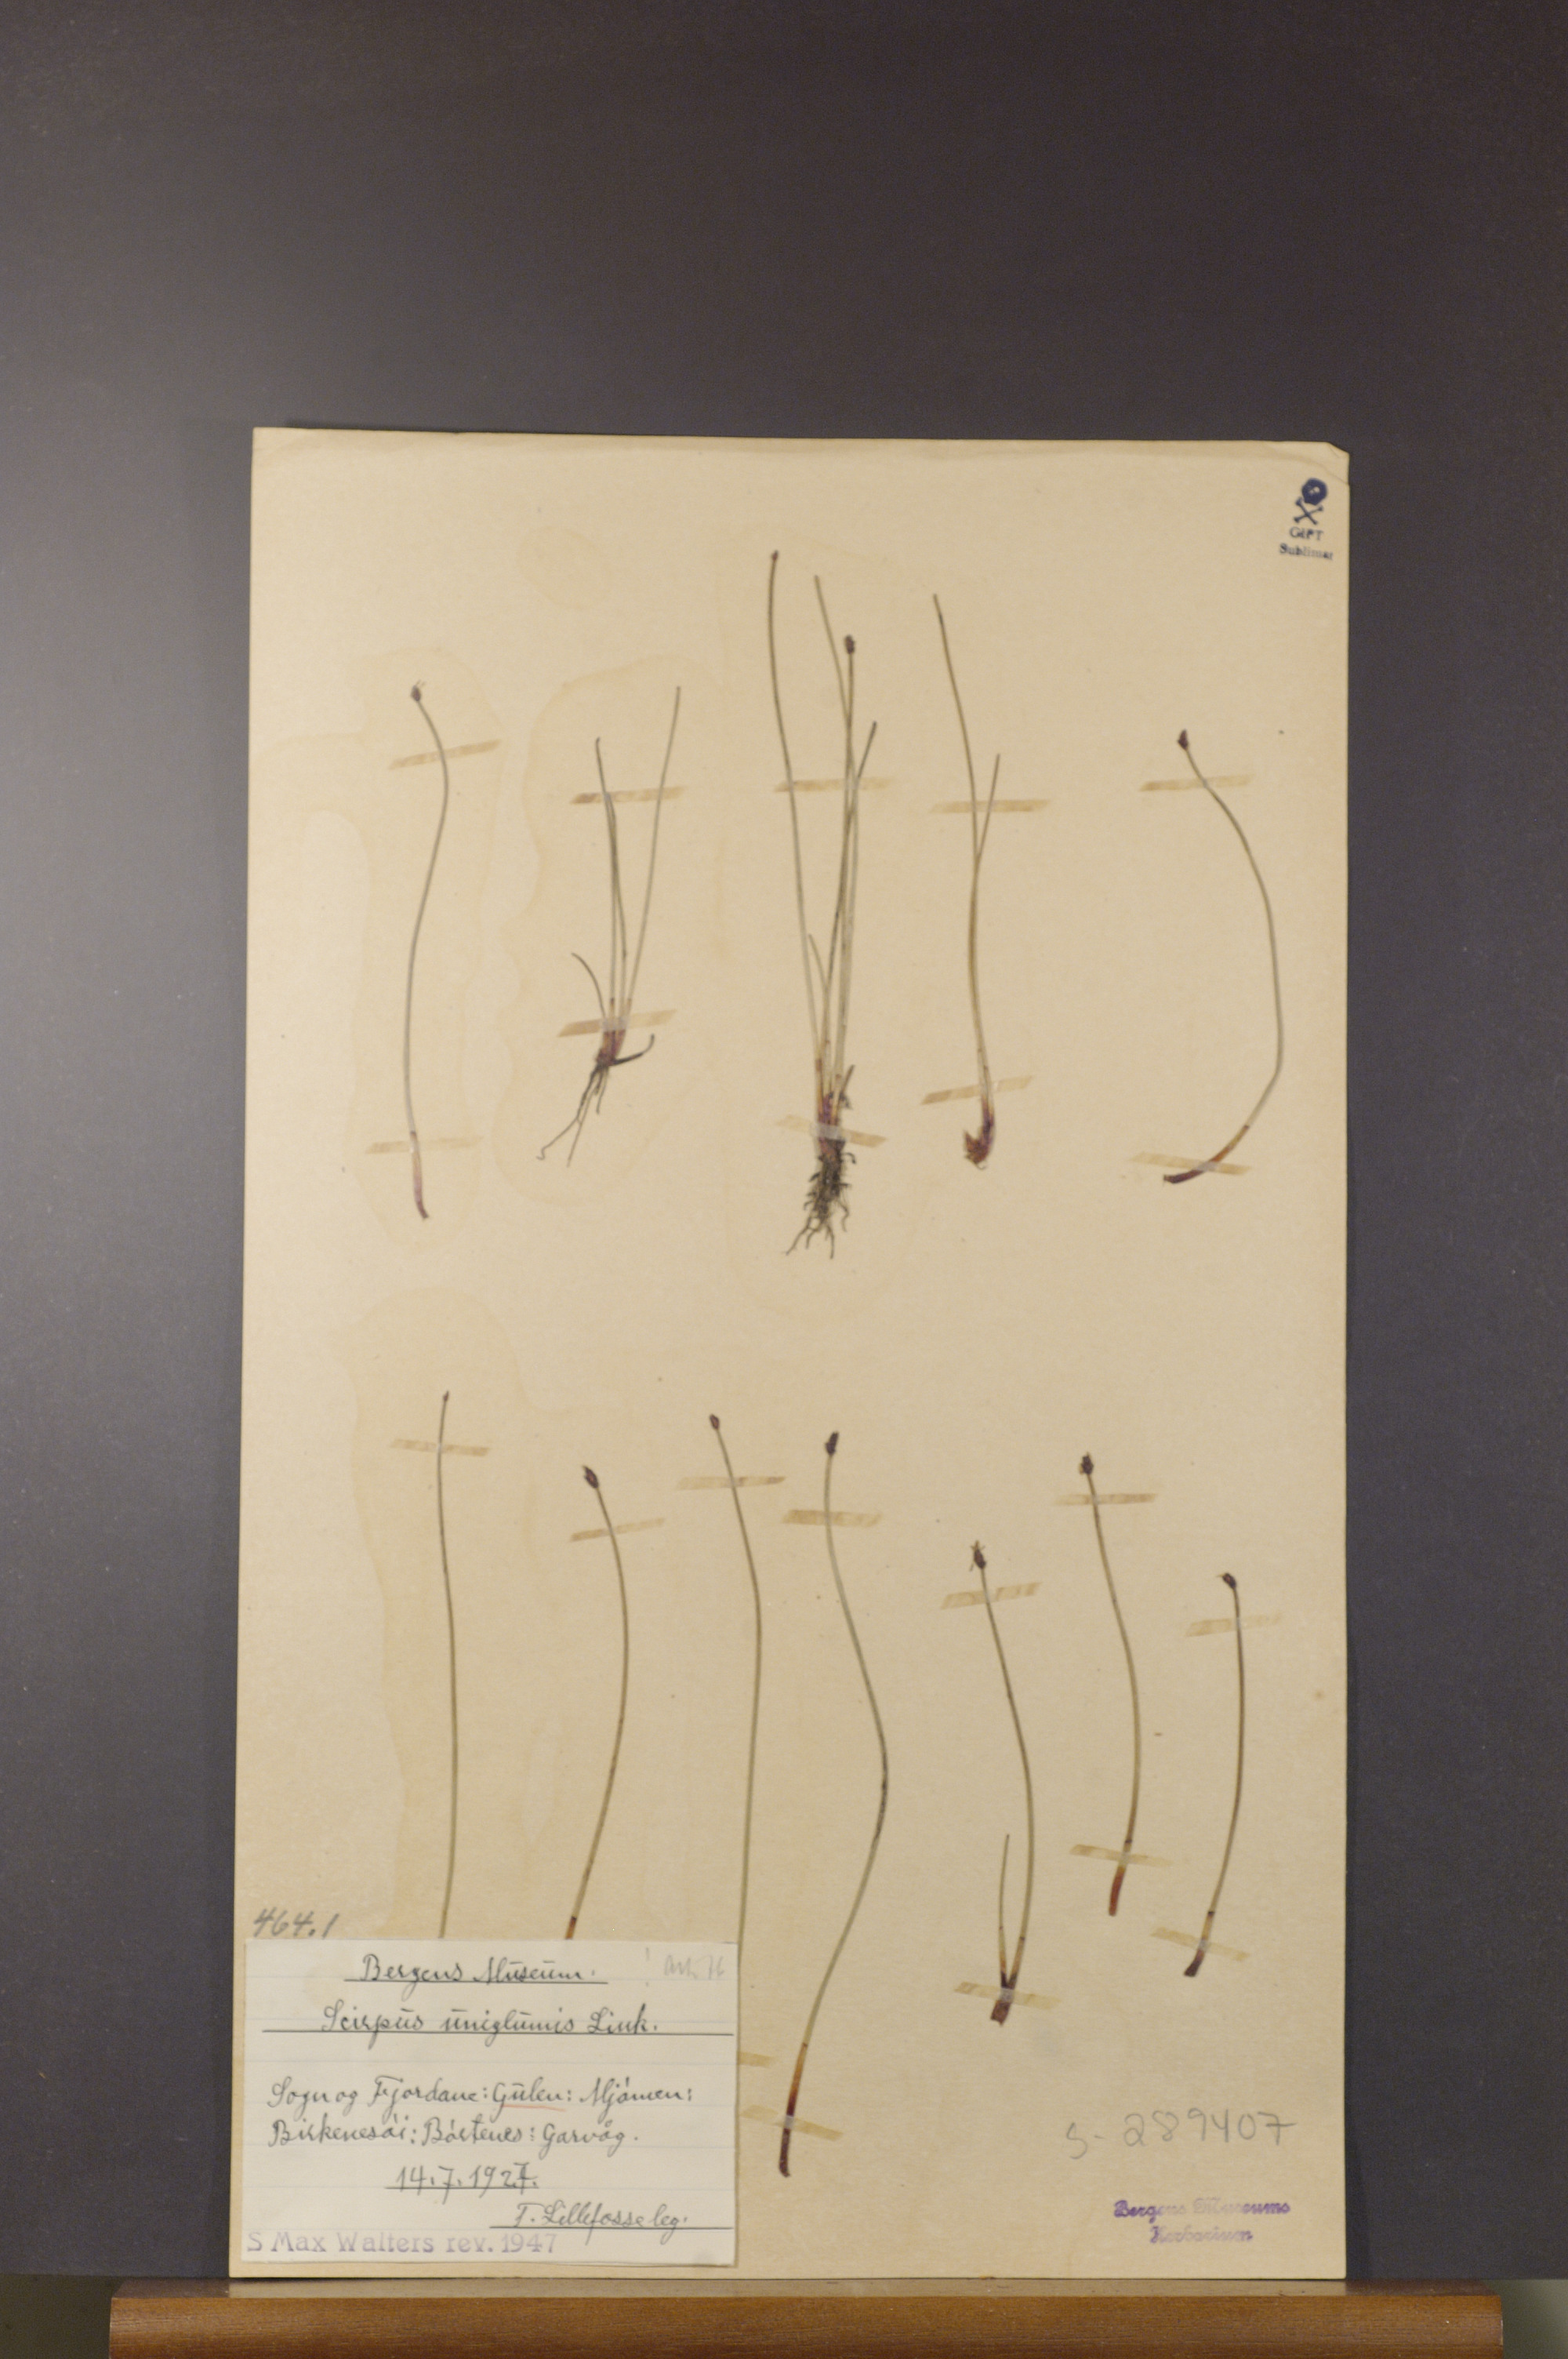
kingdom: Plantae
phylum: Tracheophyta
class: Liliopsida
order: Poales
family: Cyperaceae
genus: Eleocharis
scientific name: Eleocharis uniglumis
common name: Slender spike-rush
